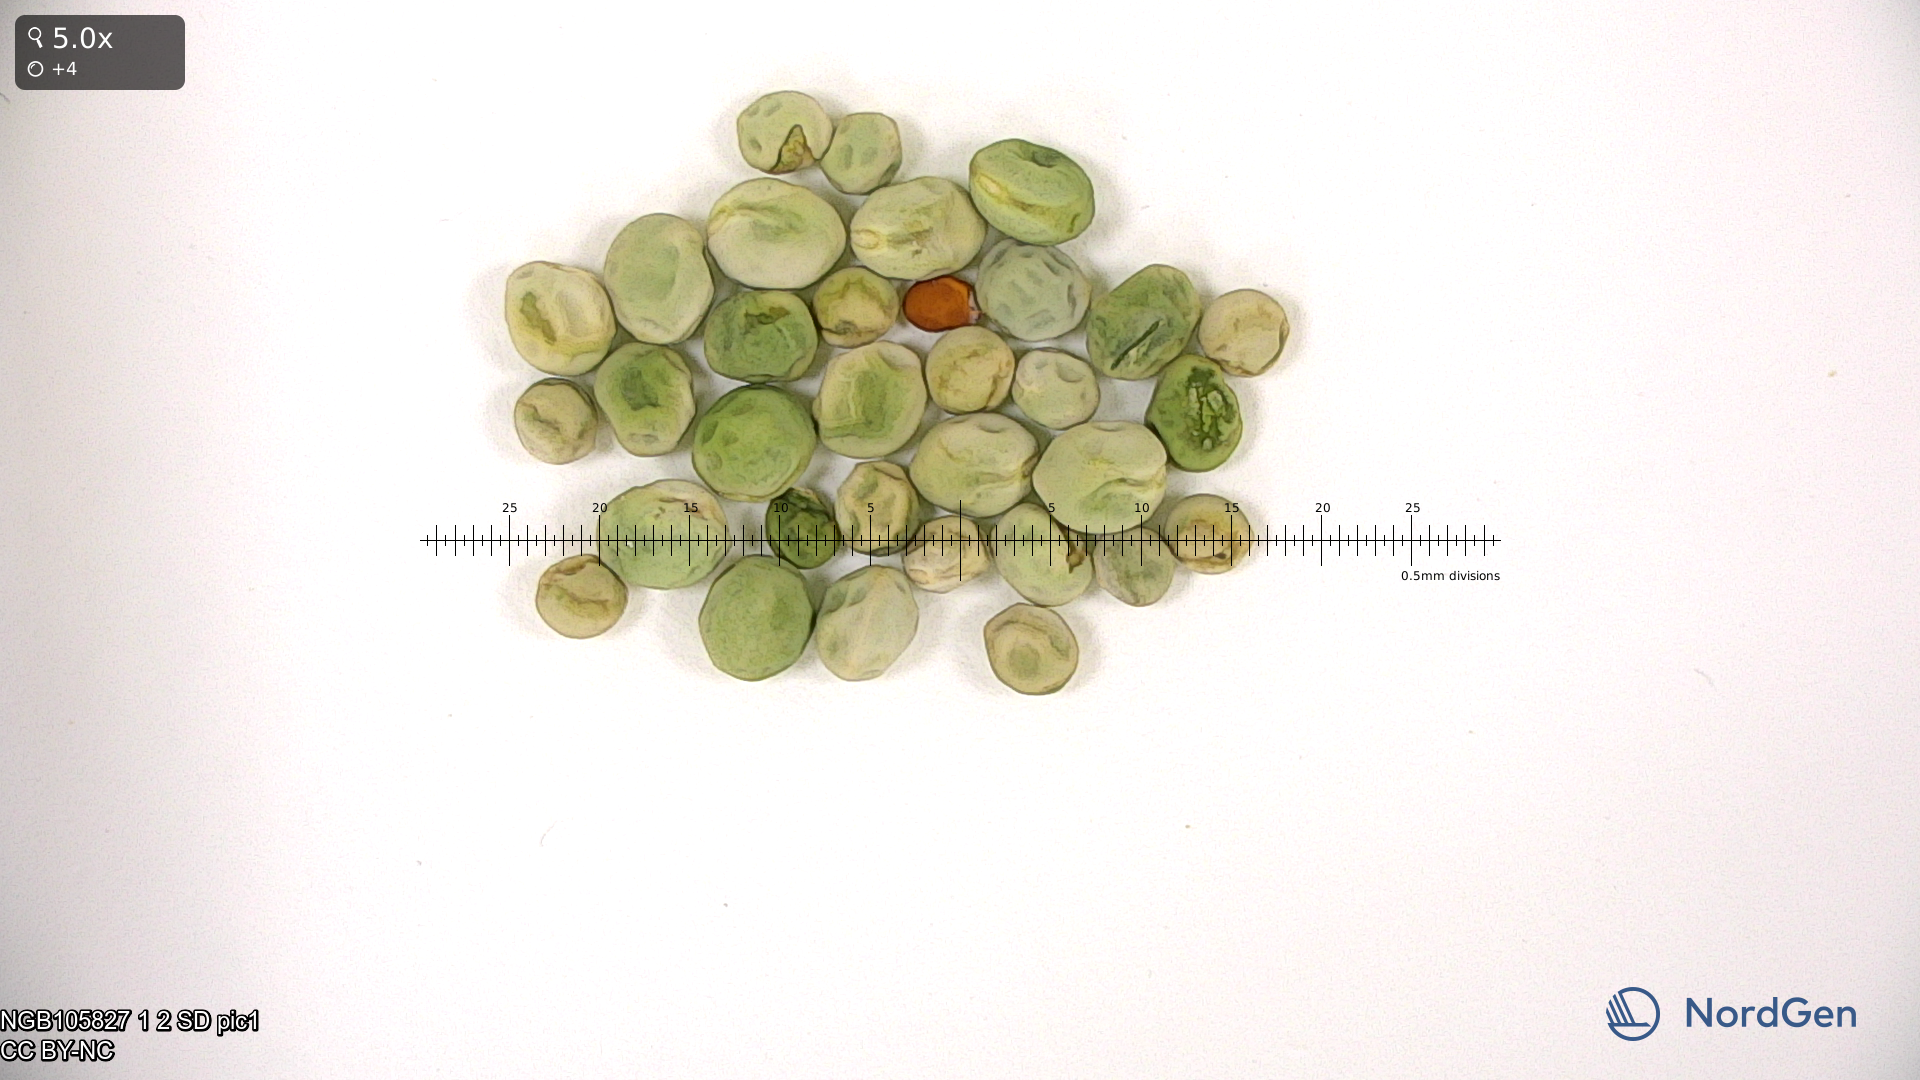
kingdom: Plantae
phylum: Tracheophyta
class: Magnoliopsida
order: Fabales
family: Fabaceae
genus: Lathyrus
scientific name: Lathyrus oleraceus
